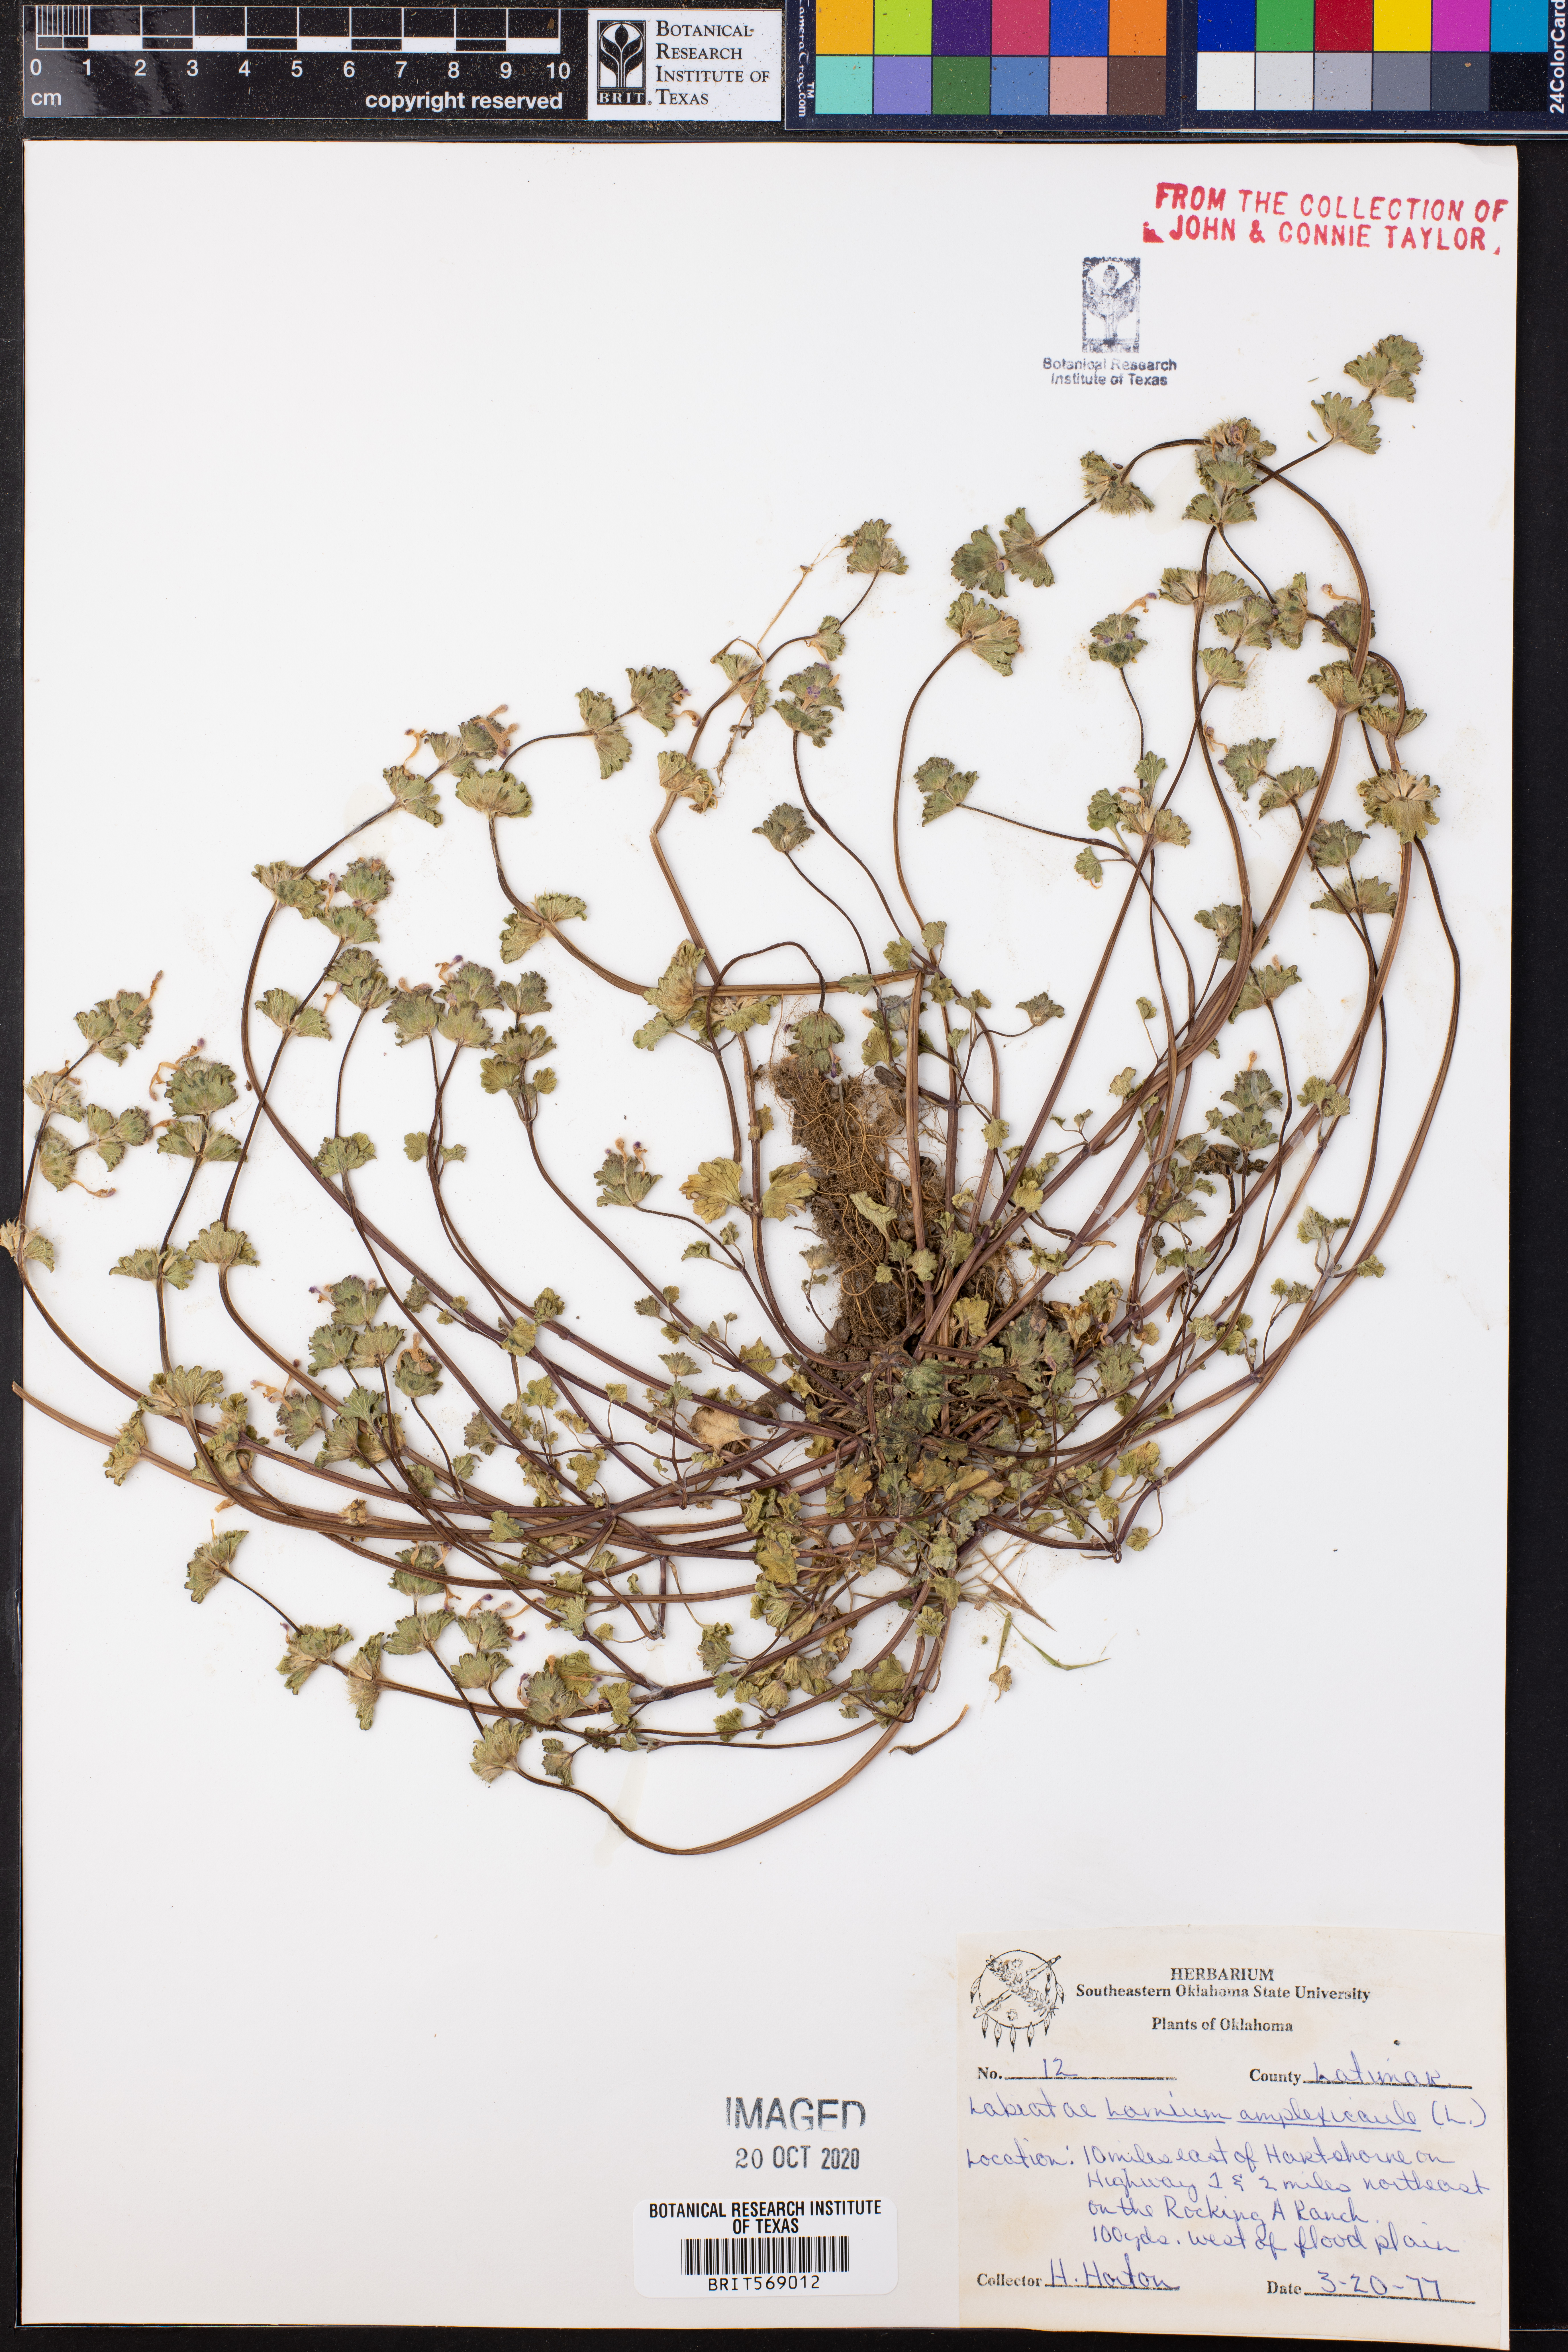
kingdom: Plantae
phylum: Tracheophyta
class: Magnoliopsida
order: Lamiales
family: Lamiaceae
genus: Lamium
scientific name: Lamium amplexicaule
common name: Henbit dead-nettle
